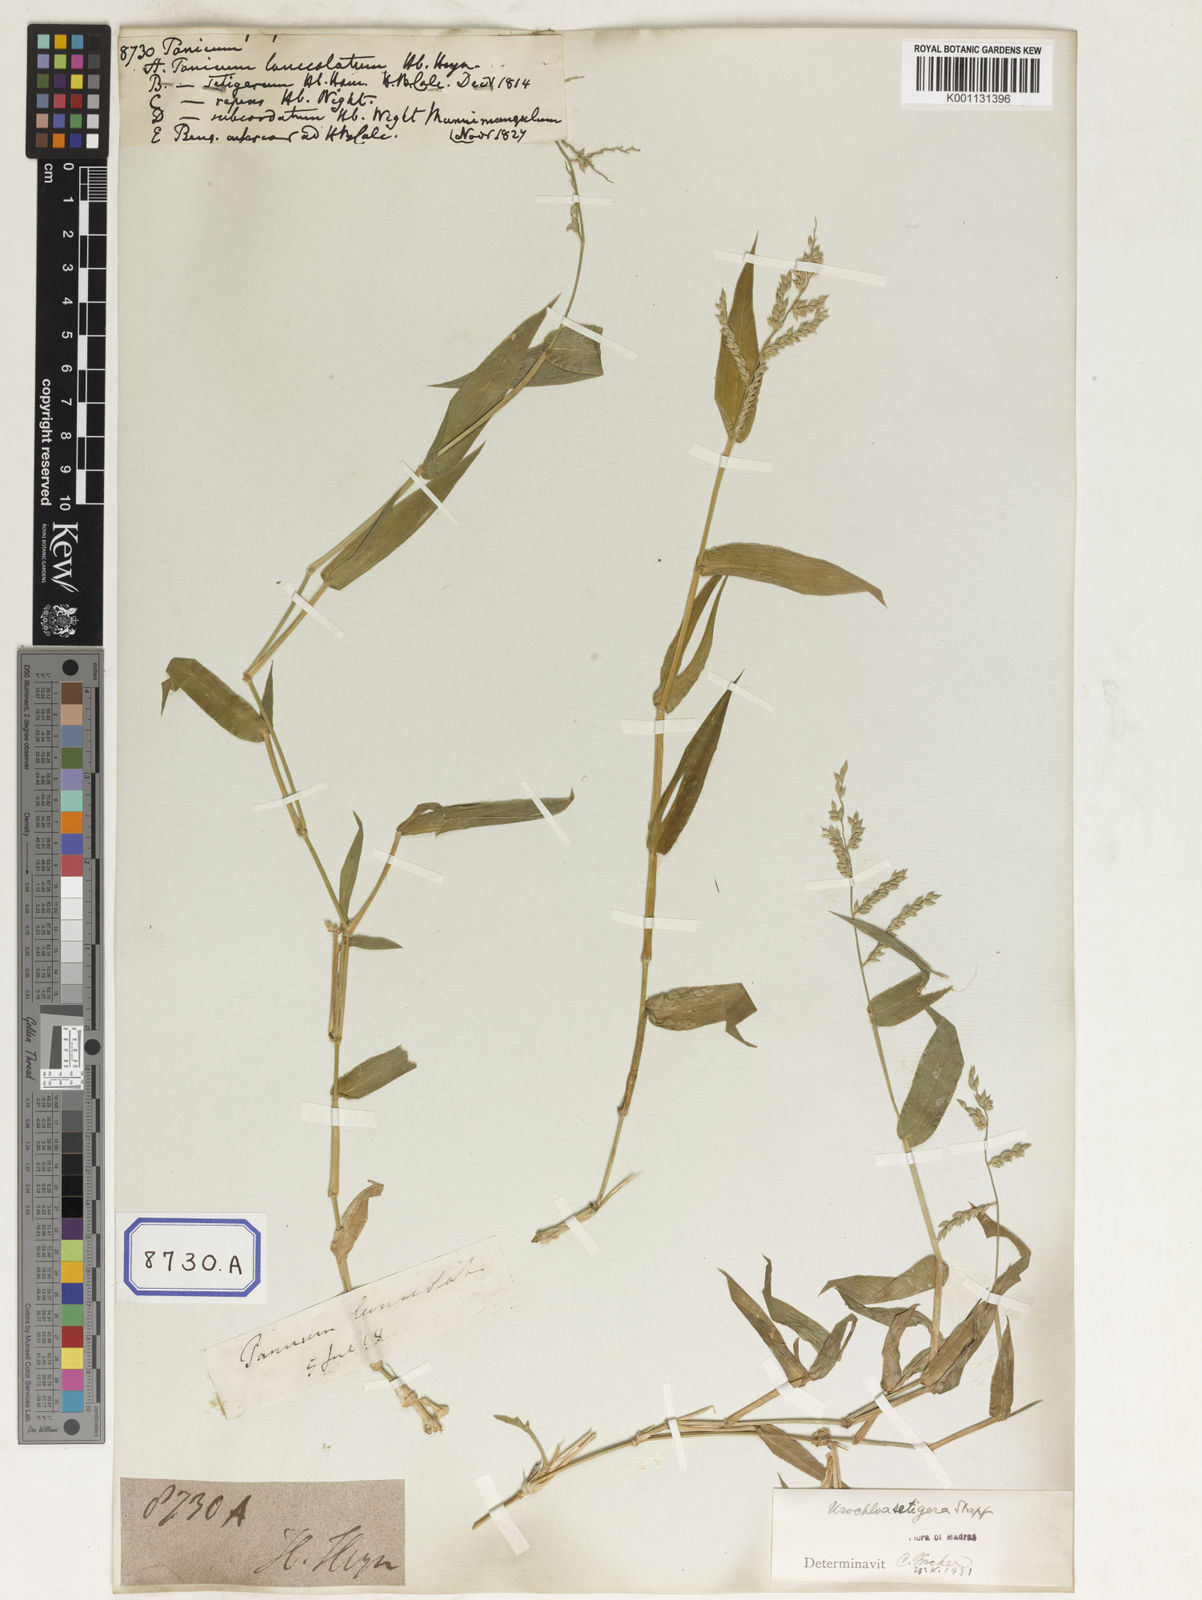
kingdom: Plantae
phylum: Tracheophyta
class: Liliopsida
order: Poales
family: Poaceae
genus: Panicum
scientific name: Panicum
